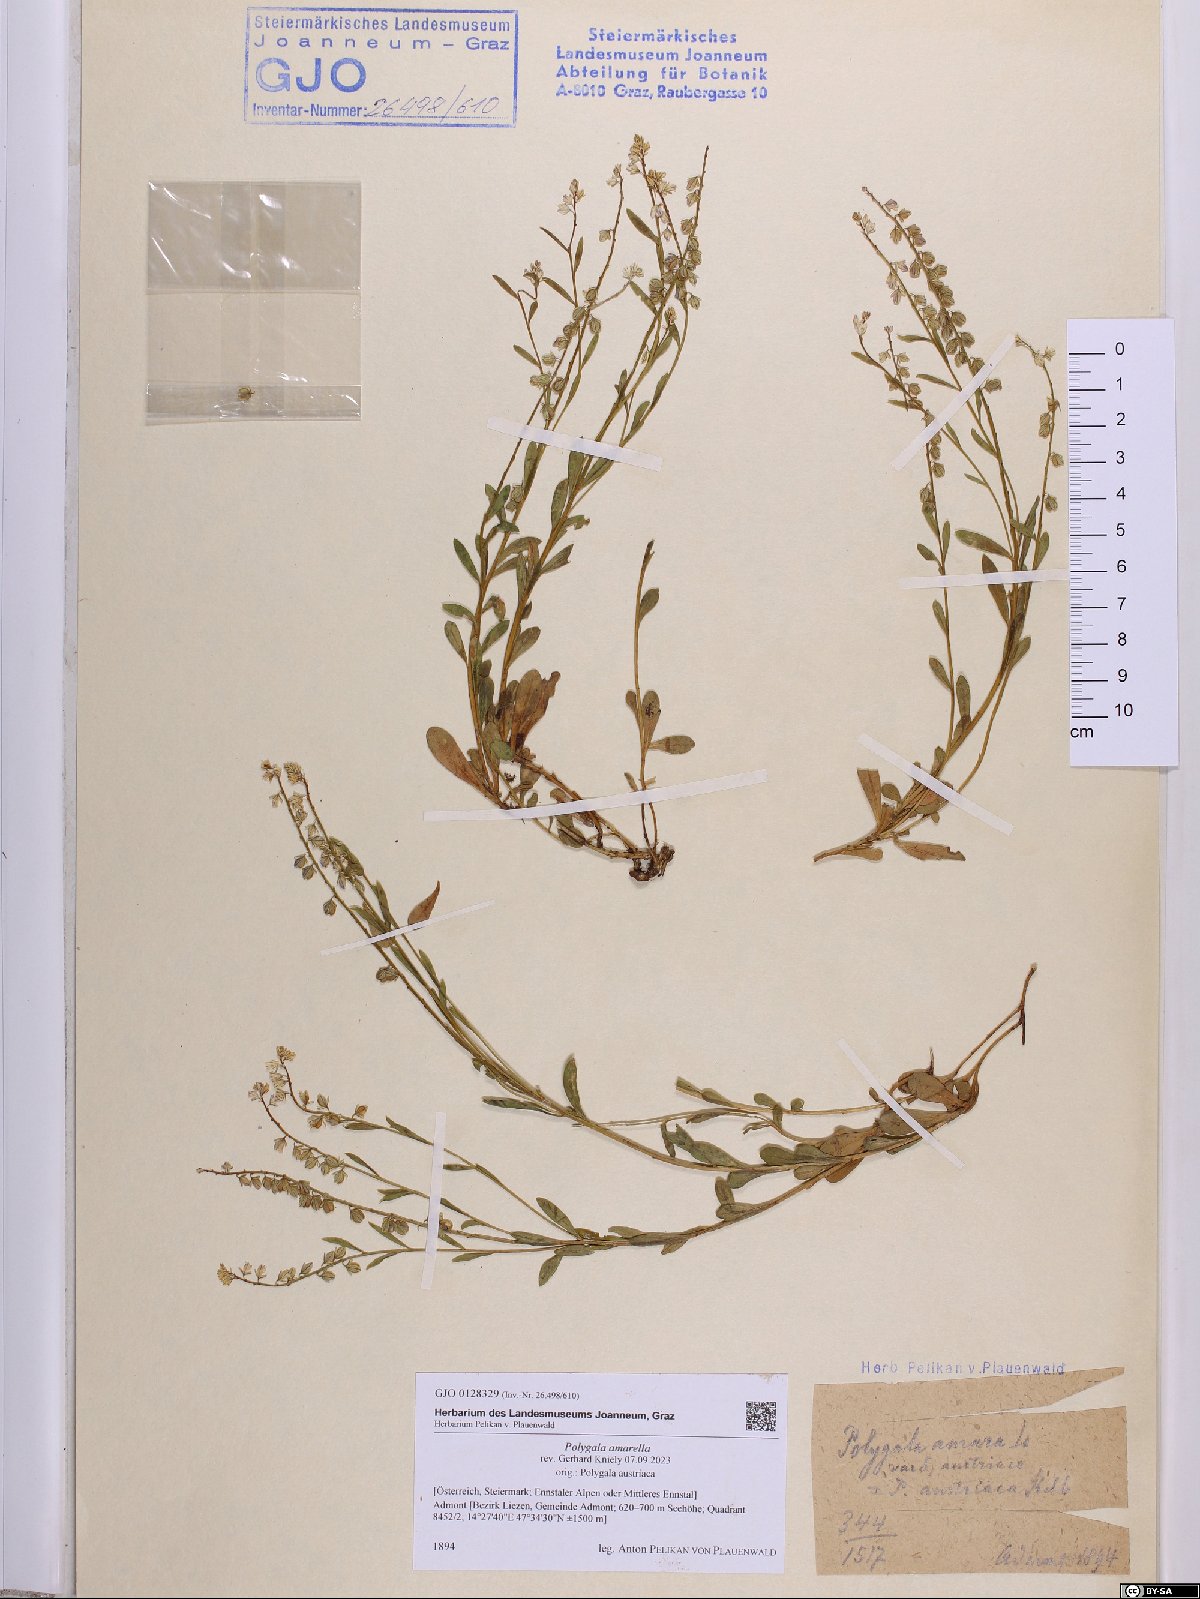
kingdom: Plantae
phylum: Tracheophyta
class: Magnoliopsida
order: Fabales
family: Polygalaceae
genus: Polygala
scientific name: Polygala amarella
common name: Dwarf milkwort
